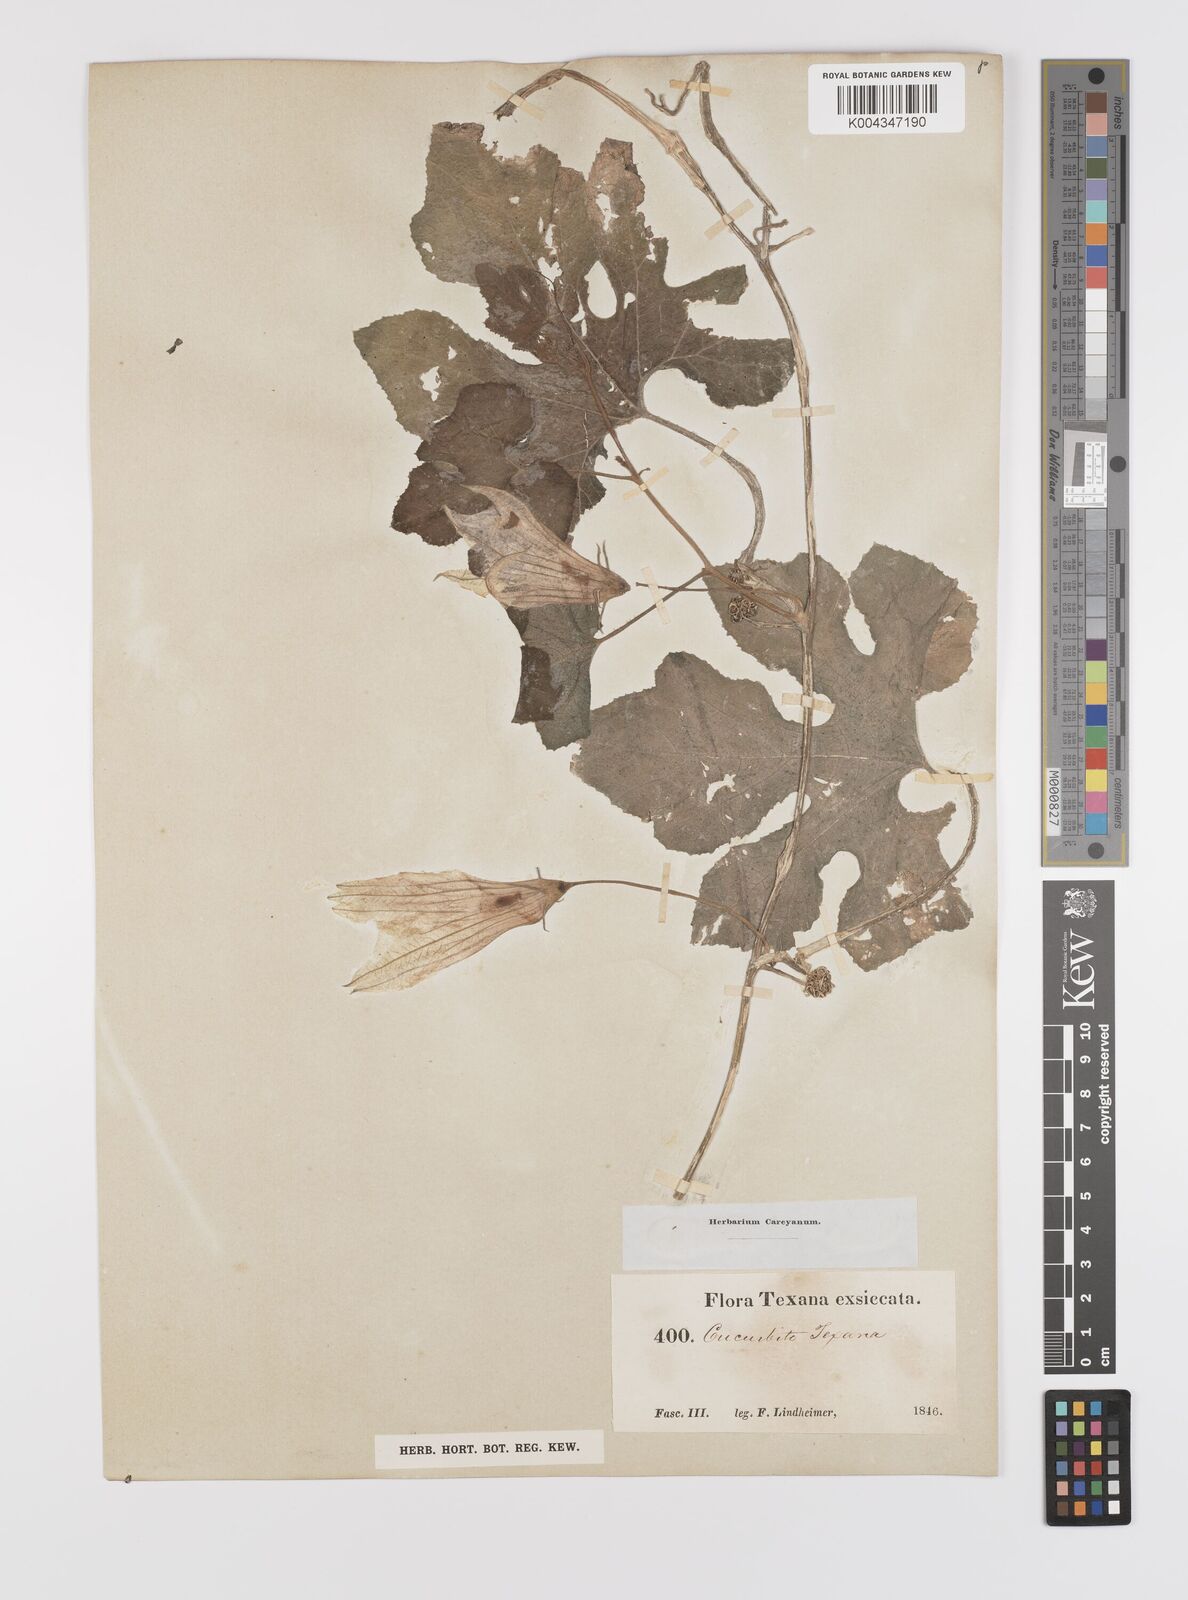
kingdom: Plantae
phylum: Tracheophyta
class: Magnoliopsida
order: Cucurbitales
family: Cucurbitaceae
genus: Cucurbita
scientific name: Cucurbita palmata
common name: Coyote-melon
